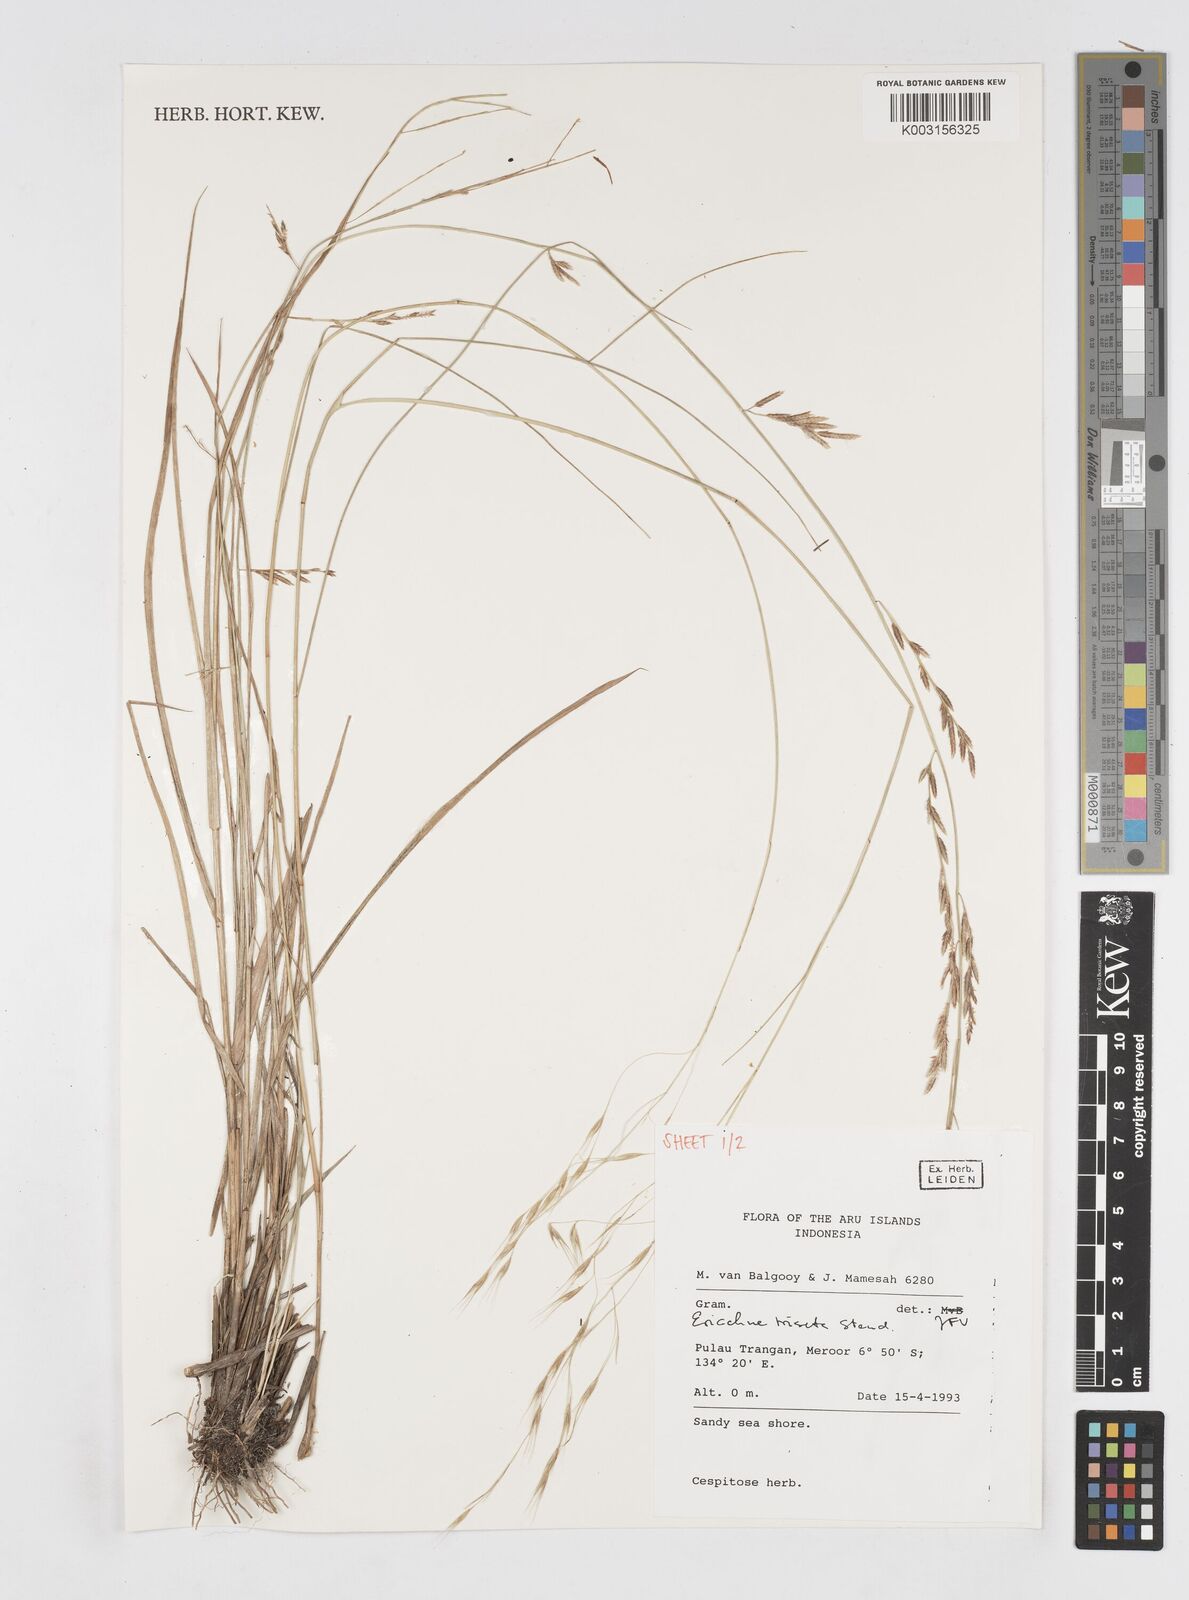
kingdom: Plantae
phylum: Tracheophyta
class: Liliopsida
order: Poales
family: Poaceae
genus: Eriachne
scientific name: Eriachne triseta
